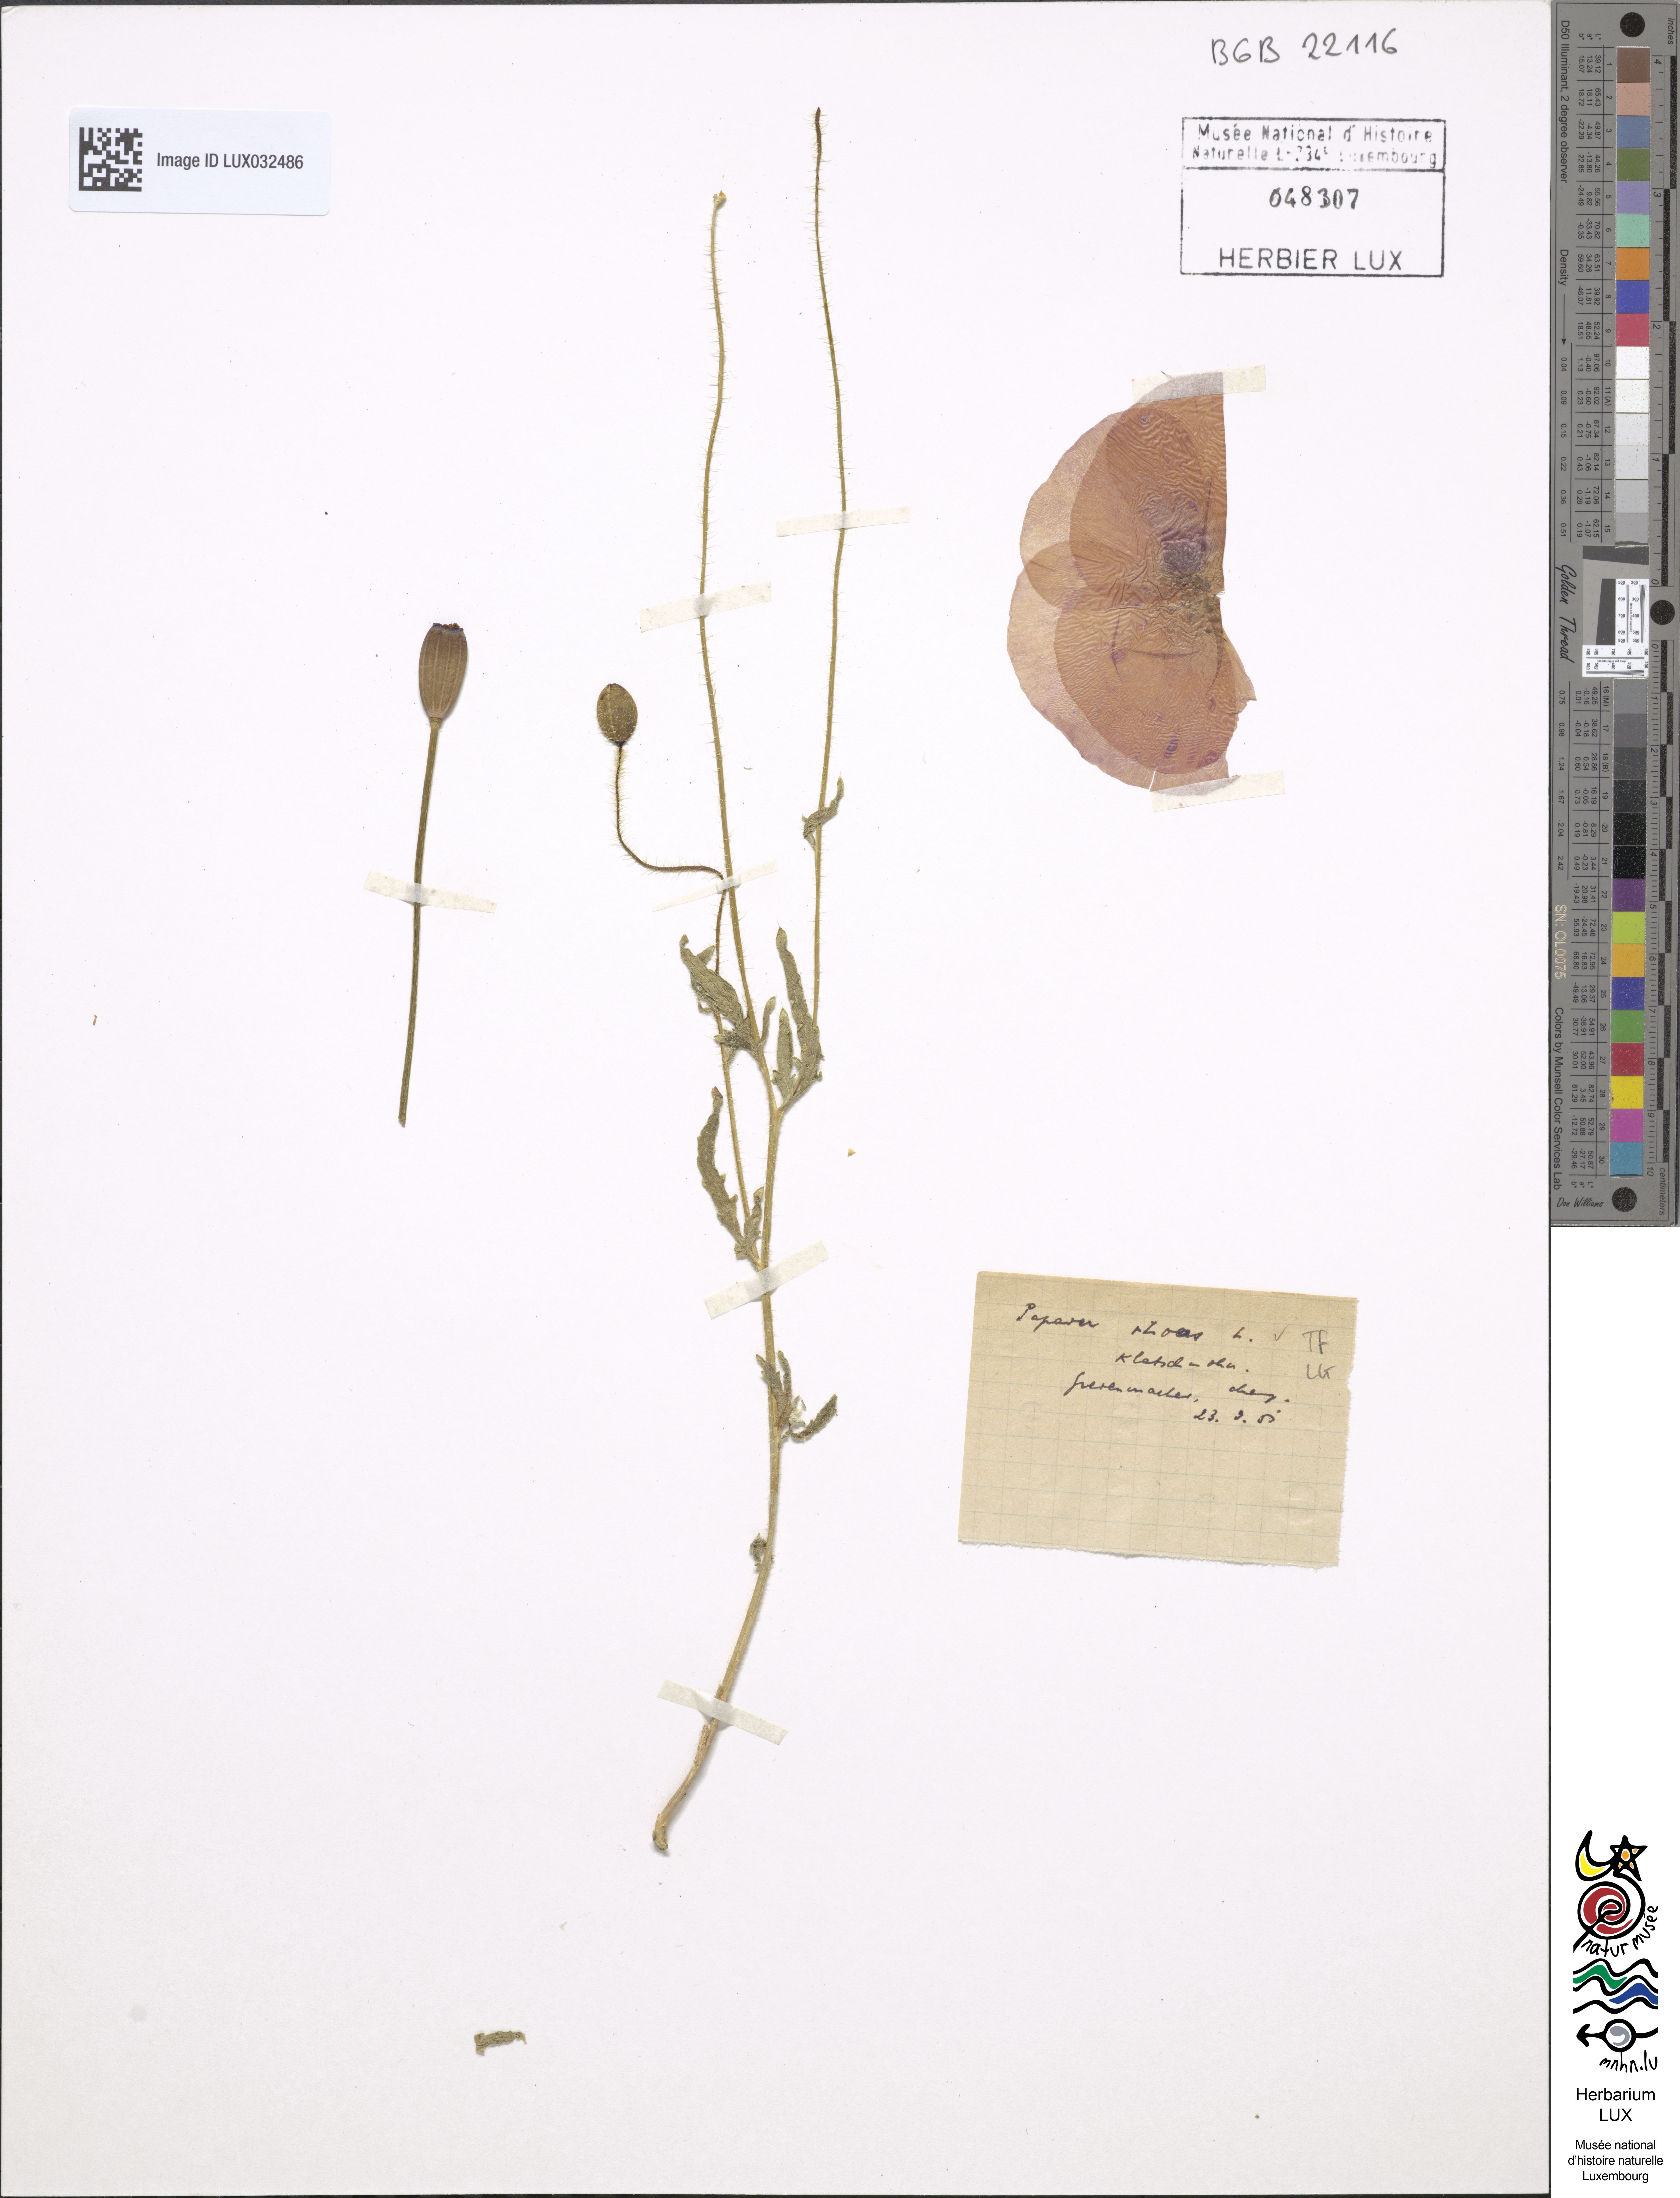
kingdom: Plantae
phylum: Tracheophyta
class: Magnoliopsida
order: Ranunculales
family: Papaveraceae
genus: Papaver
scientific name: Papaver rhoeas
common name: Corn poppy
